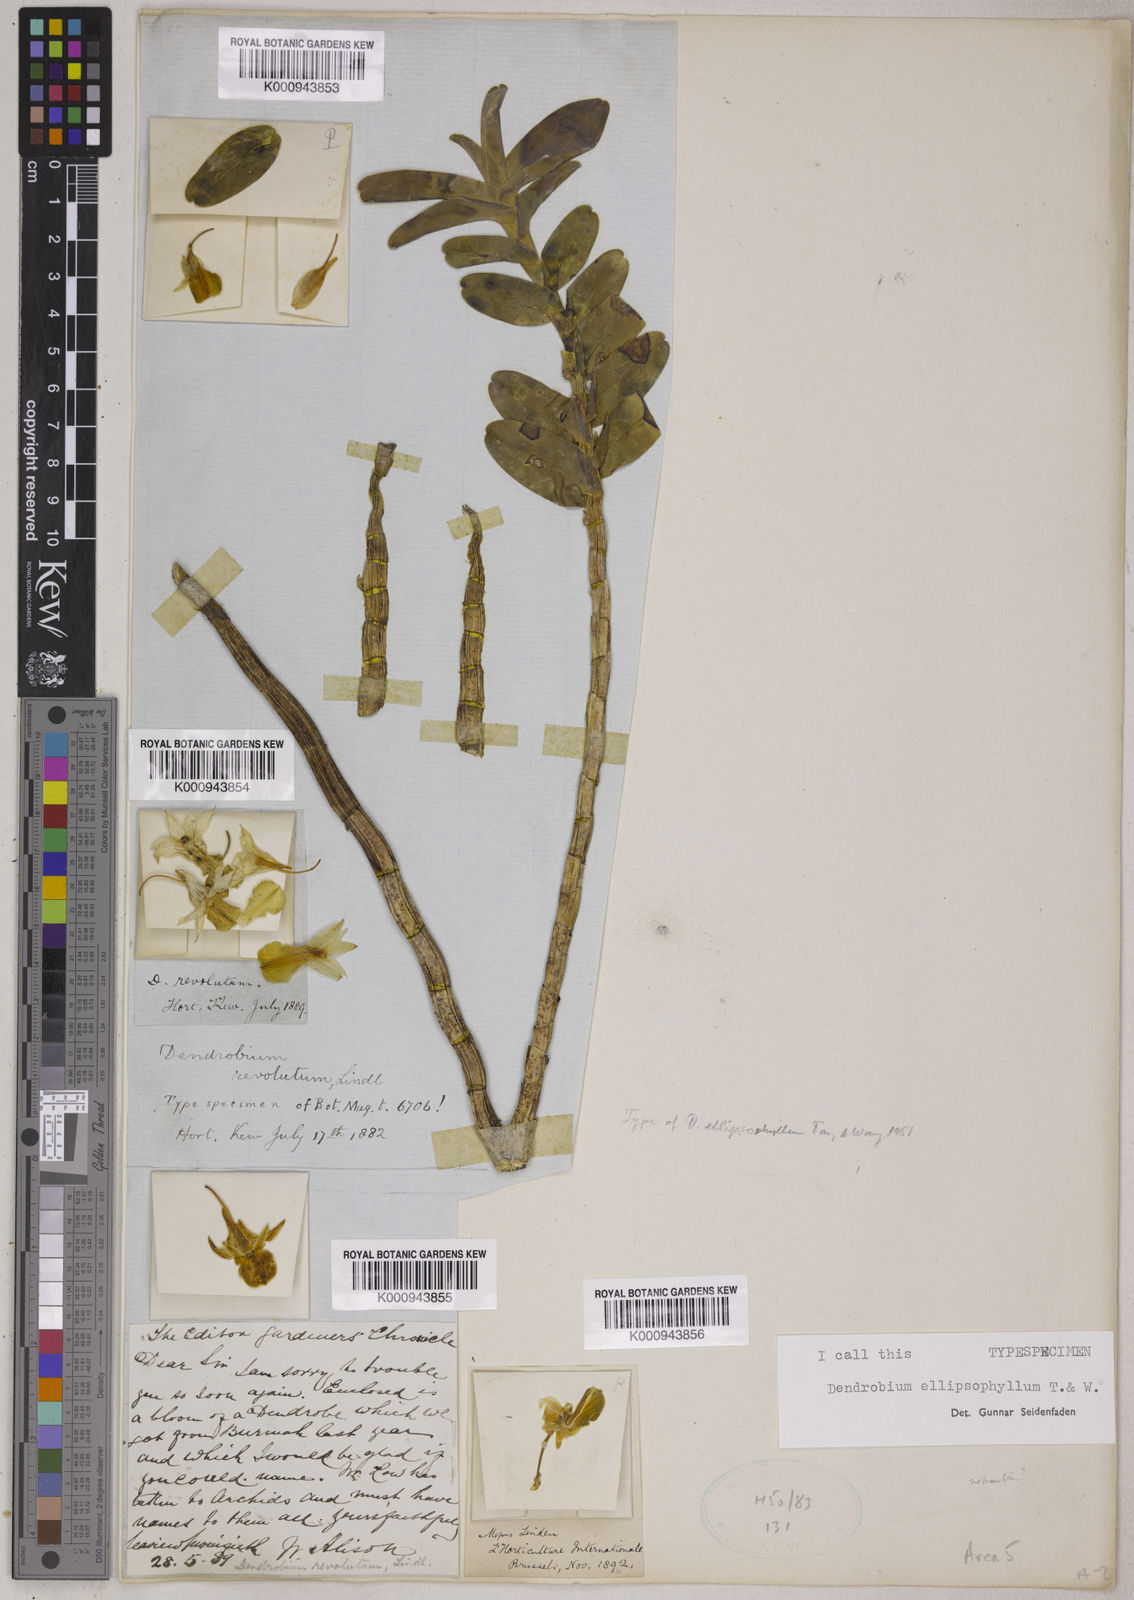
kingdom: Plantae
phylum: Tracheophyta
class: Liliopsida
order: Asparagales
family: Orchidaceae
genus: Dendrobium
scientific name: Dendrobium ellipsophyllum
